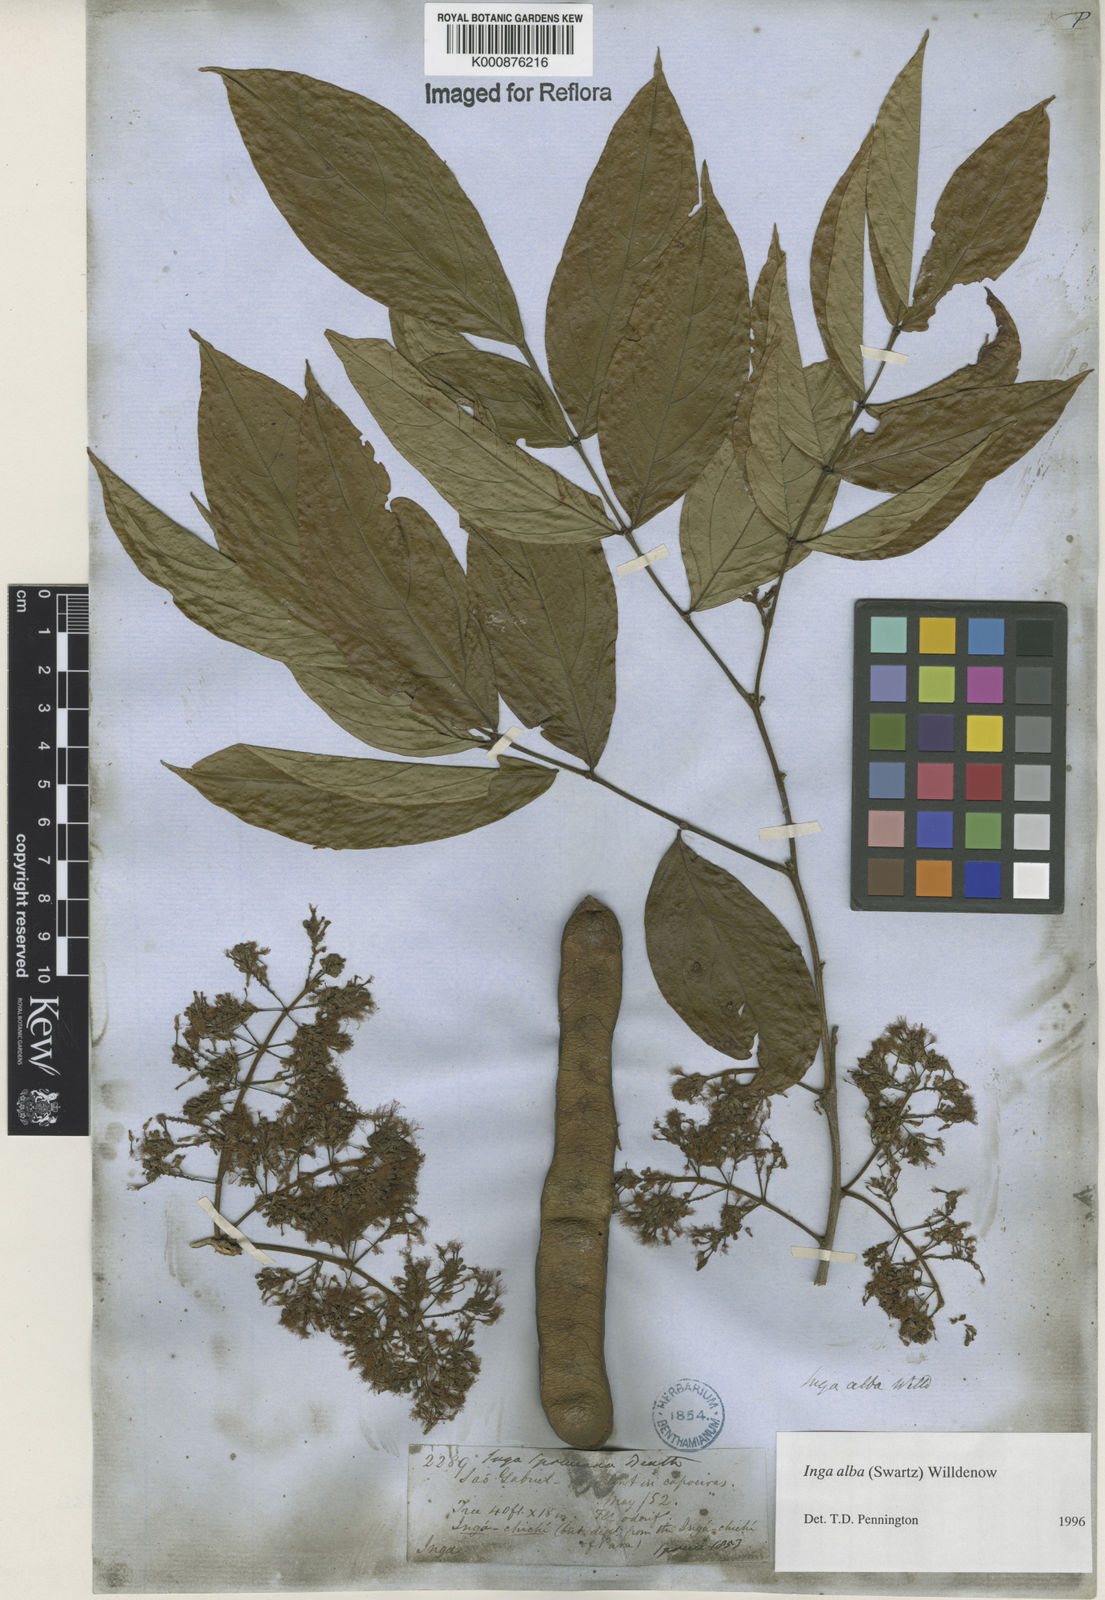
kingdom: Plantae
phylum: Tracheophyta
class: Magnoliopsida
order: Fabales
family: Fabaceae
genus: Inga
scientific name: Inga alba
